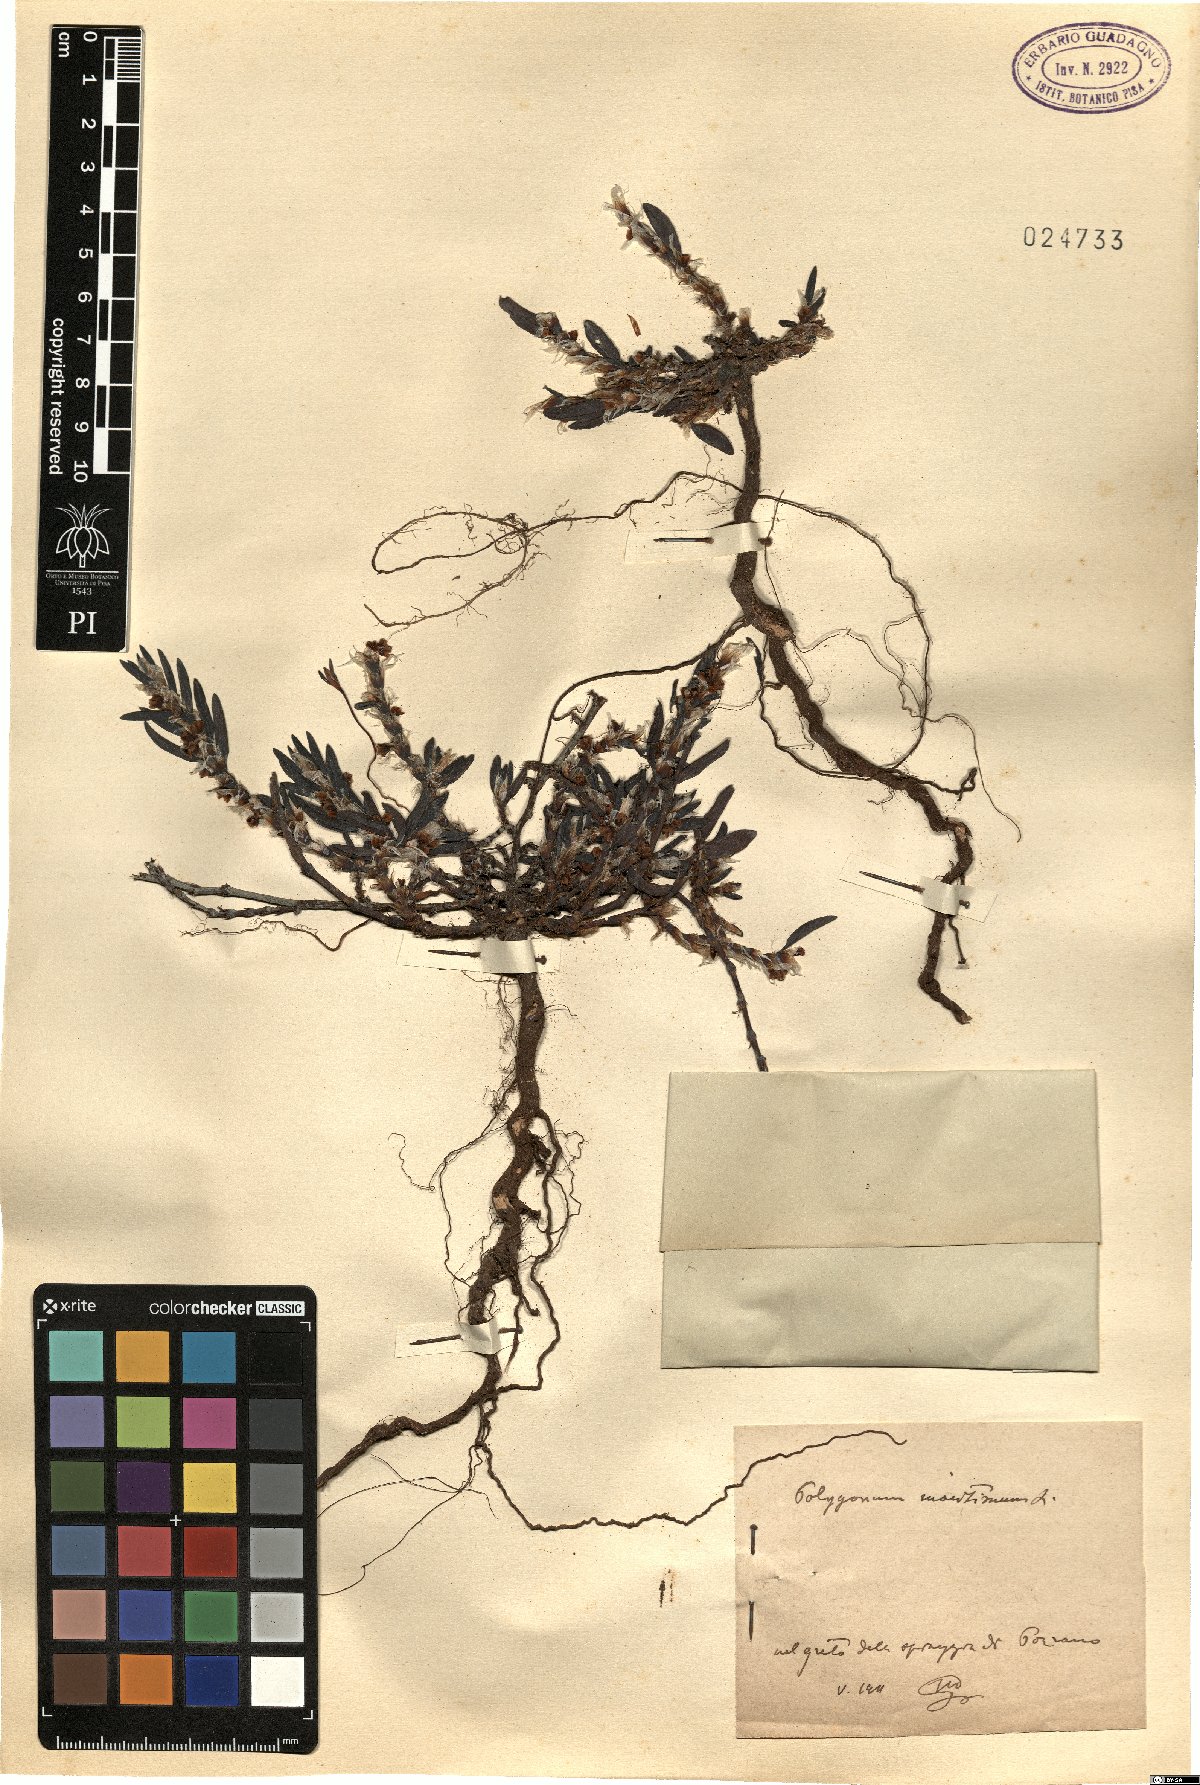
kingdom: Plantae
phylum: Tracheophyta
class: Magnoliopsida
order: Caryophyllales
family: Polygonaceae
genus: Polygonum
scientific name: Polygonum maritimum
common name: Sea knotgrass
